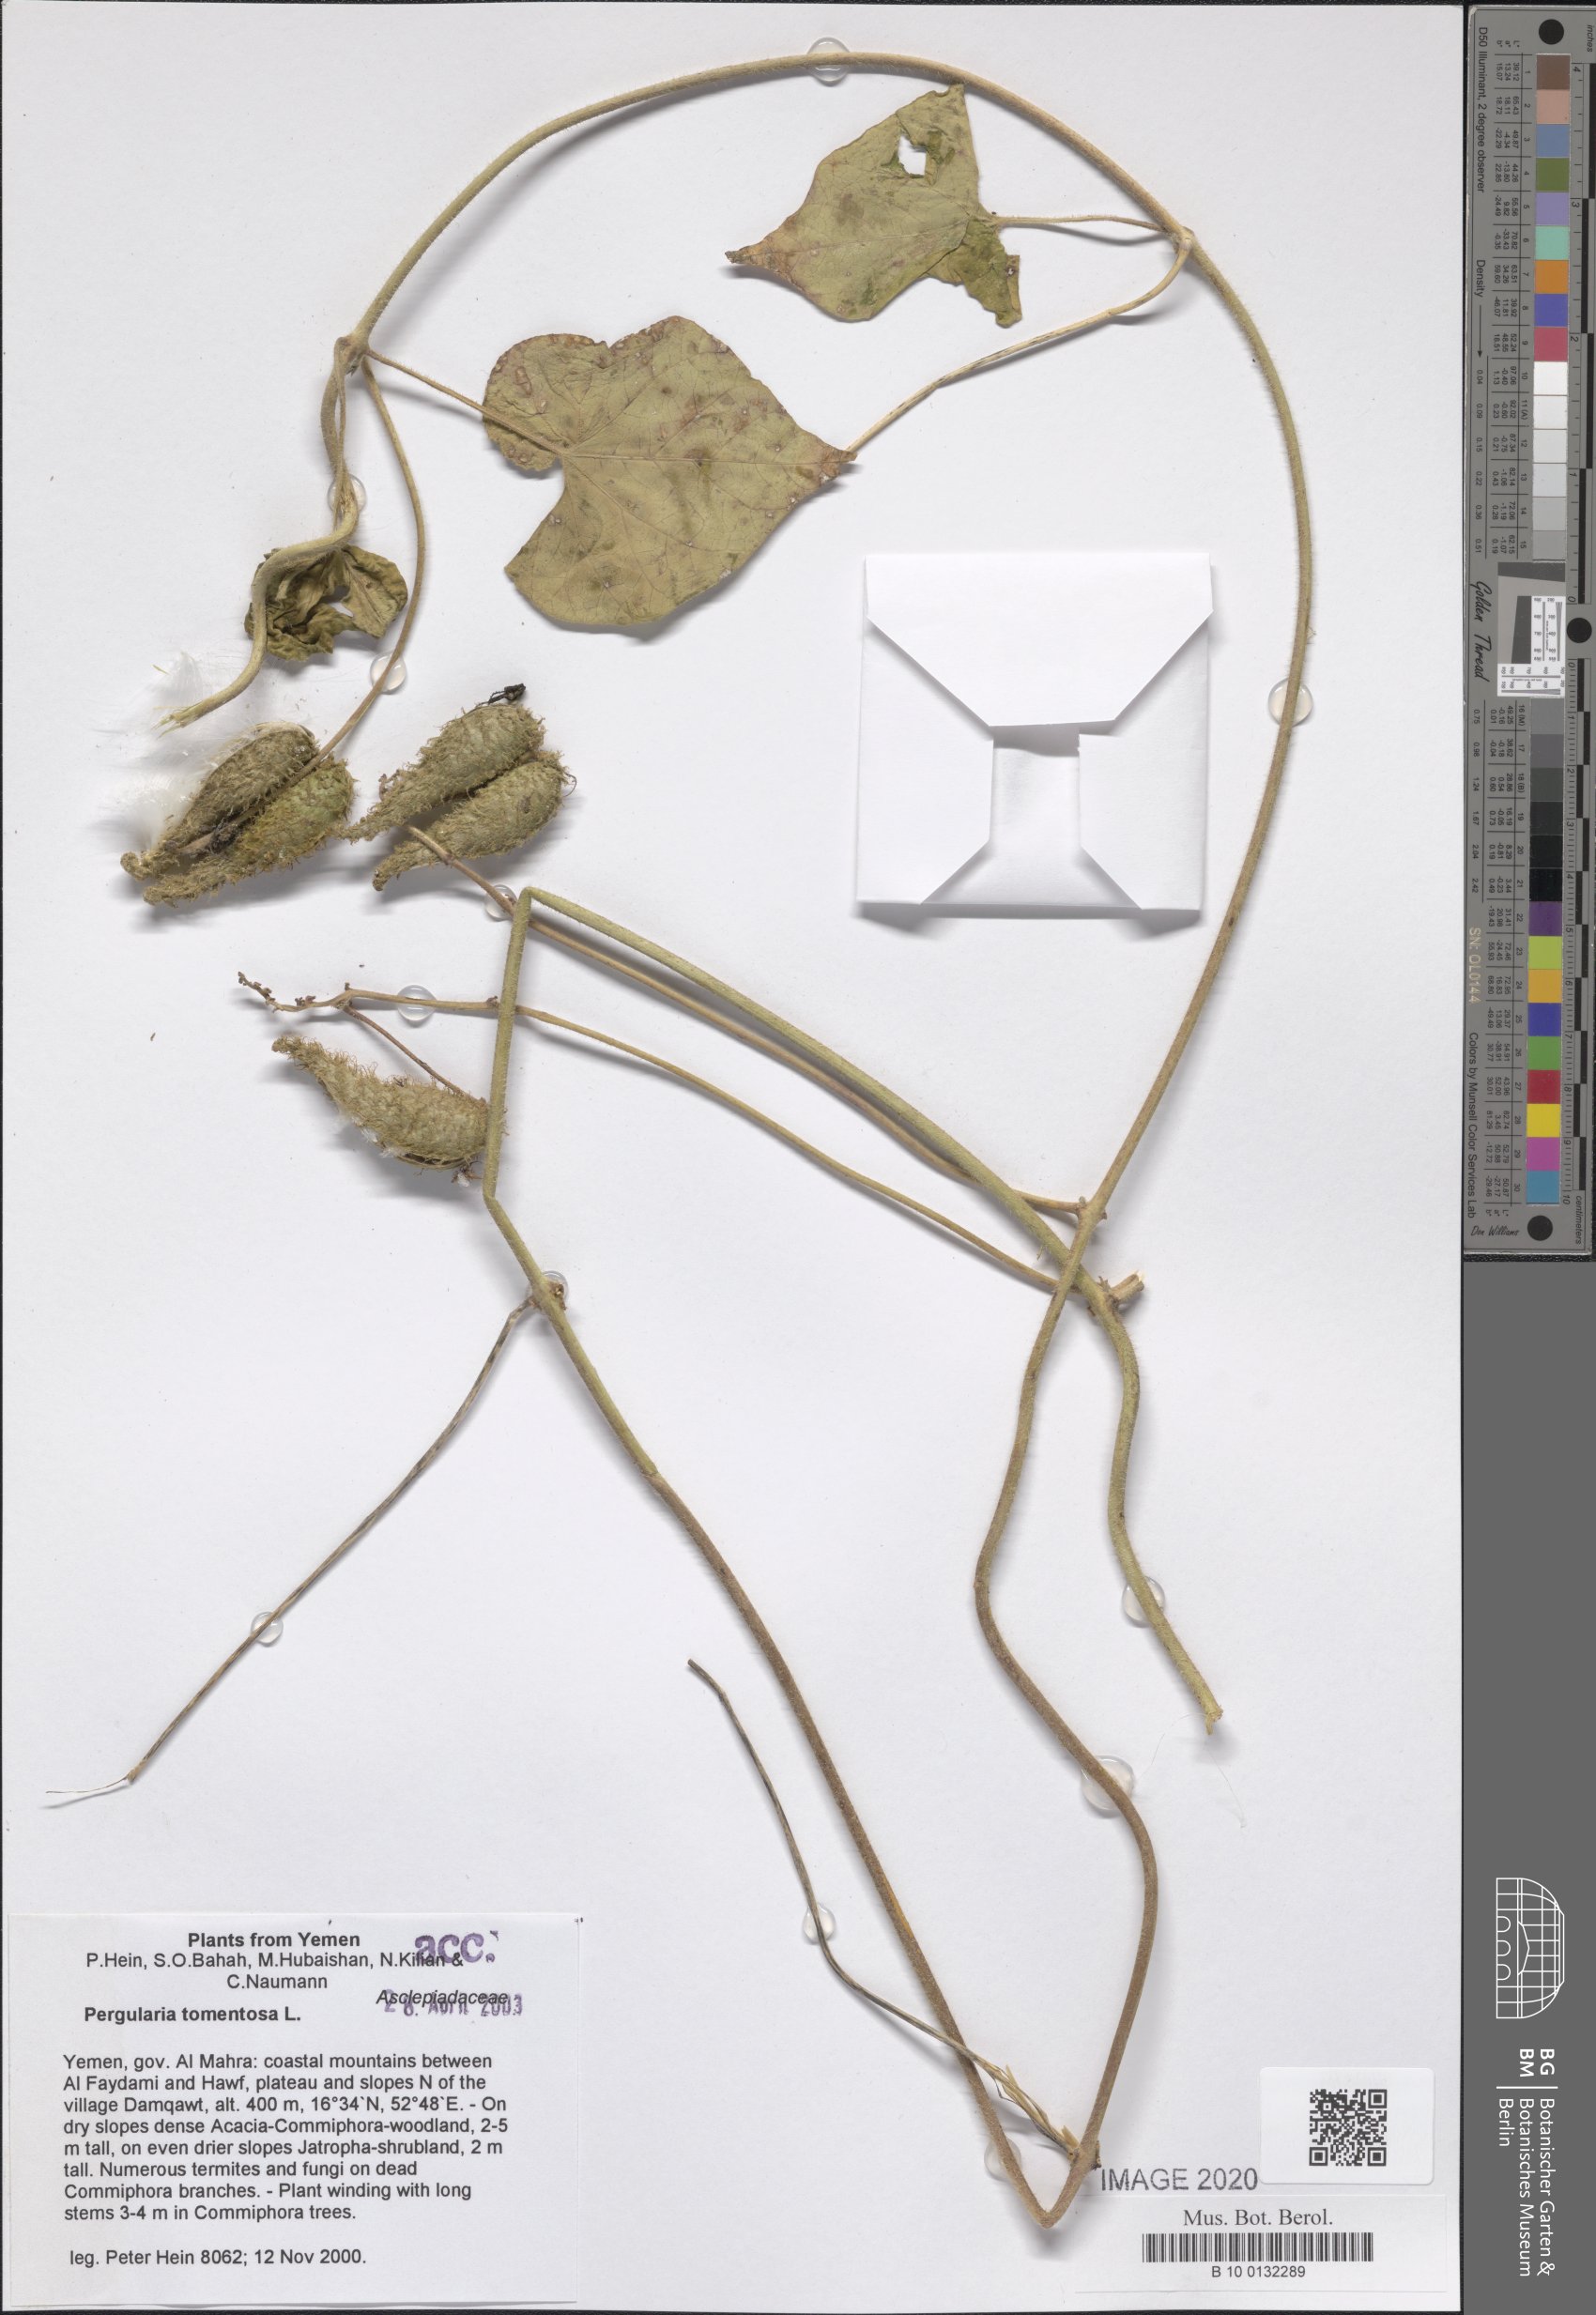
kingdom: Plantae
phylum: Tracheophyta
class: Magnoliopsida
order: Gentianales
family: Apocynaceae
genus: Pergularia
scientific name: Pergularia tomentosa
